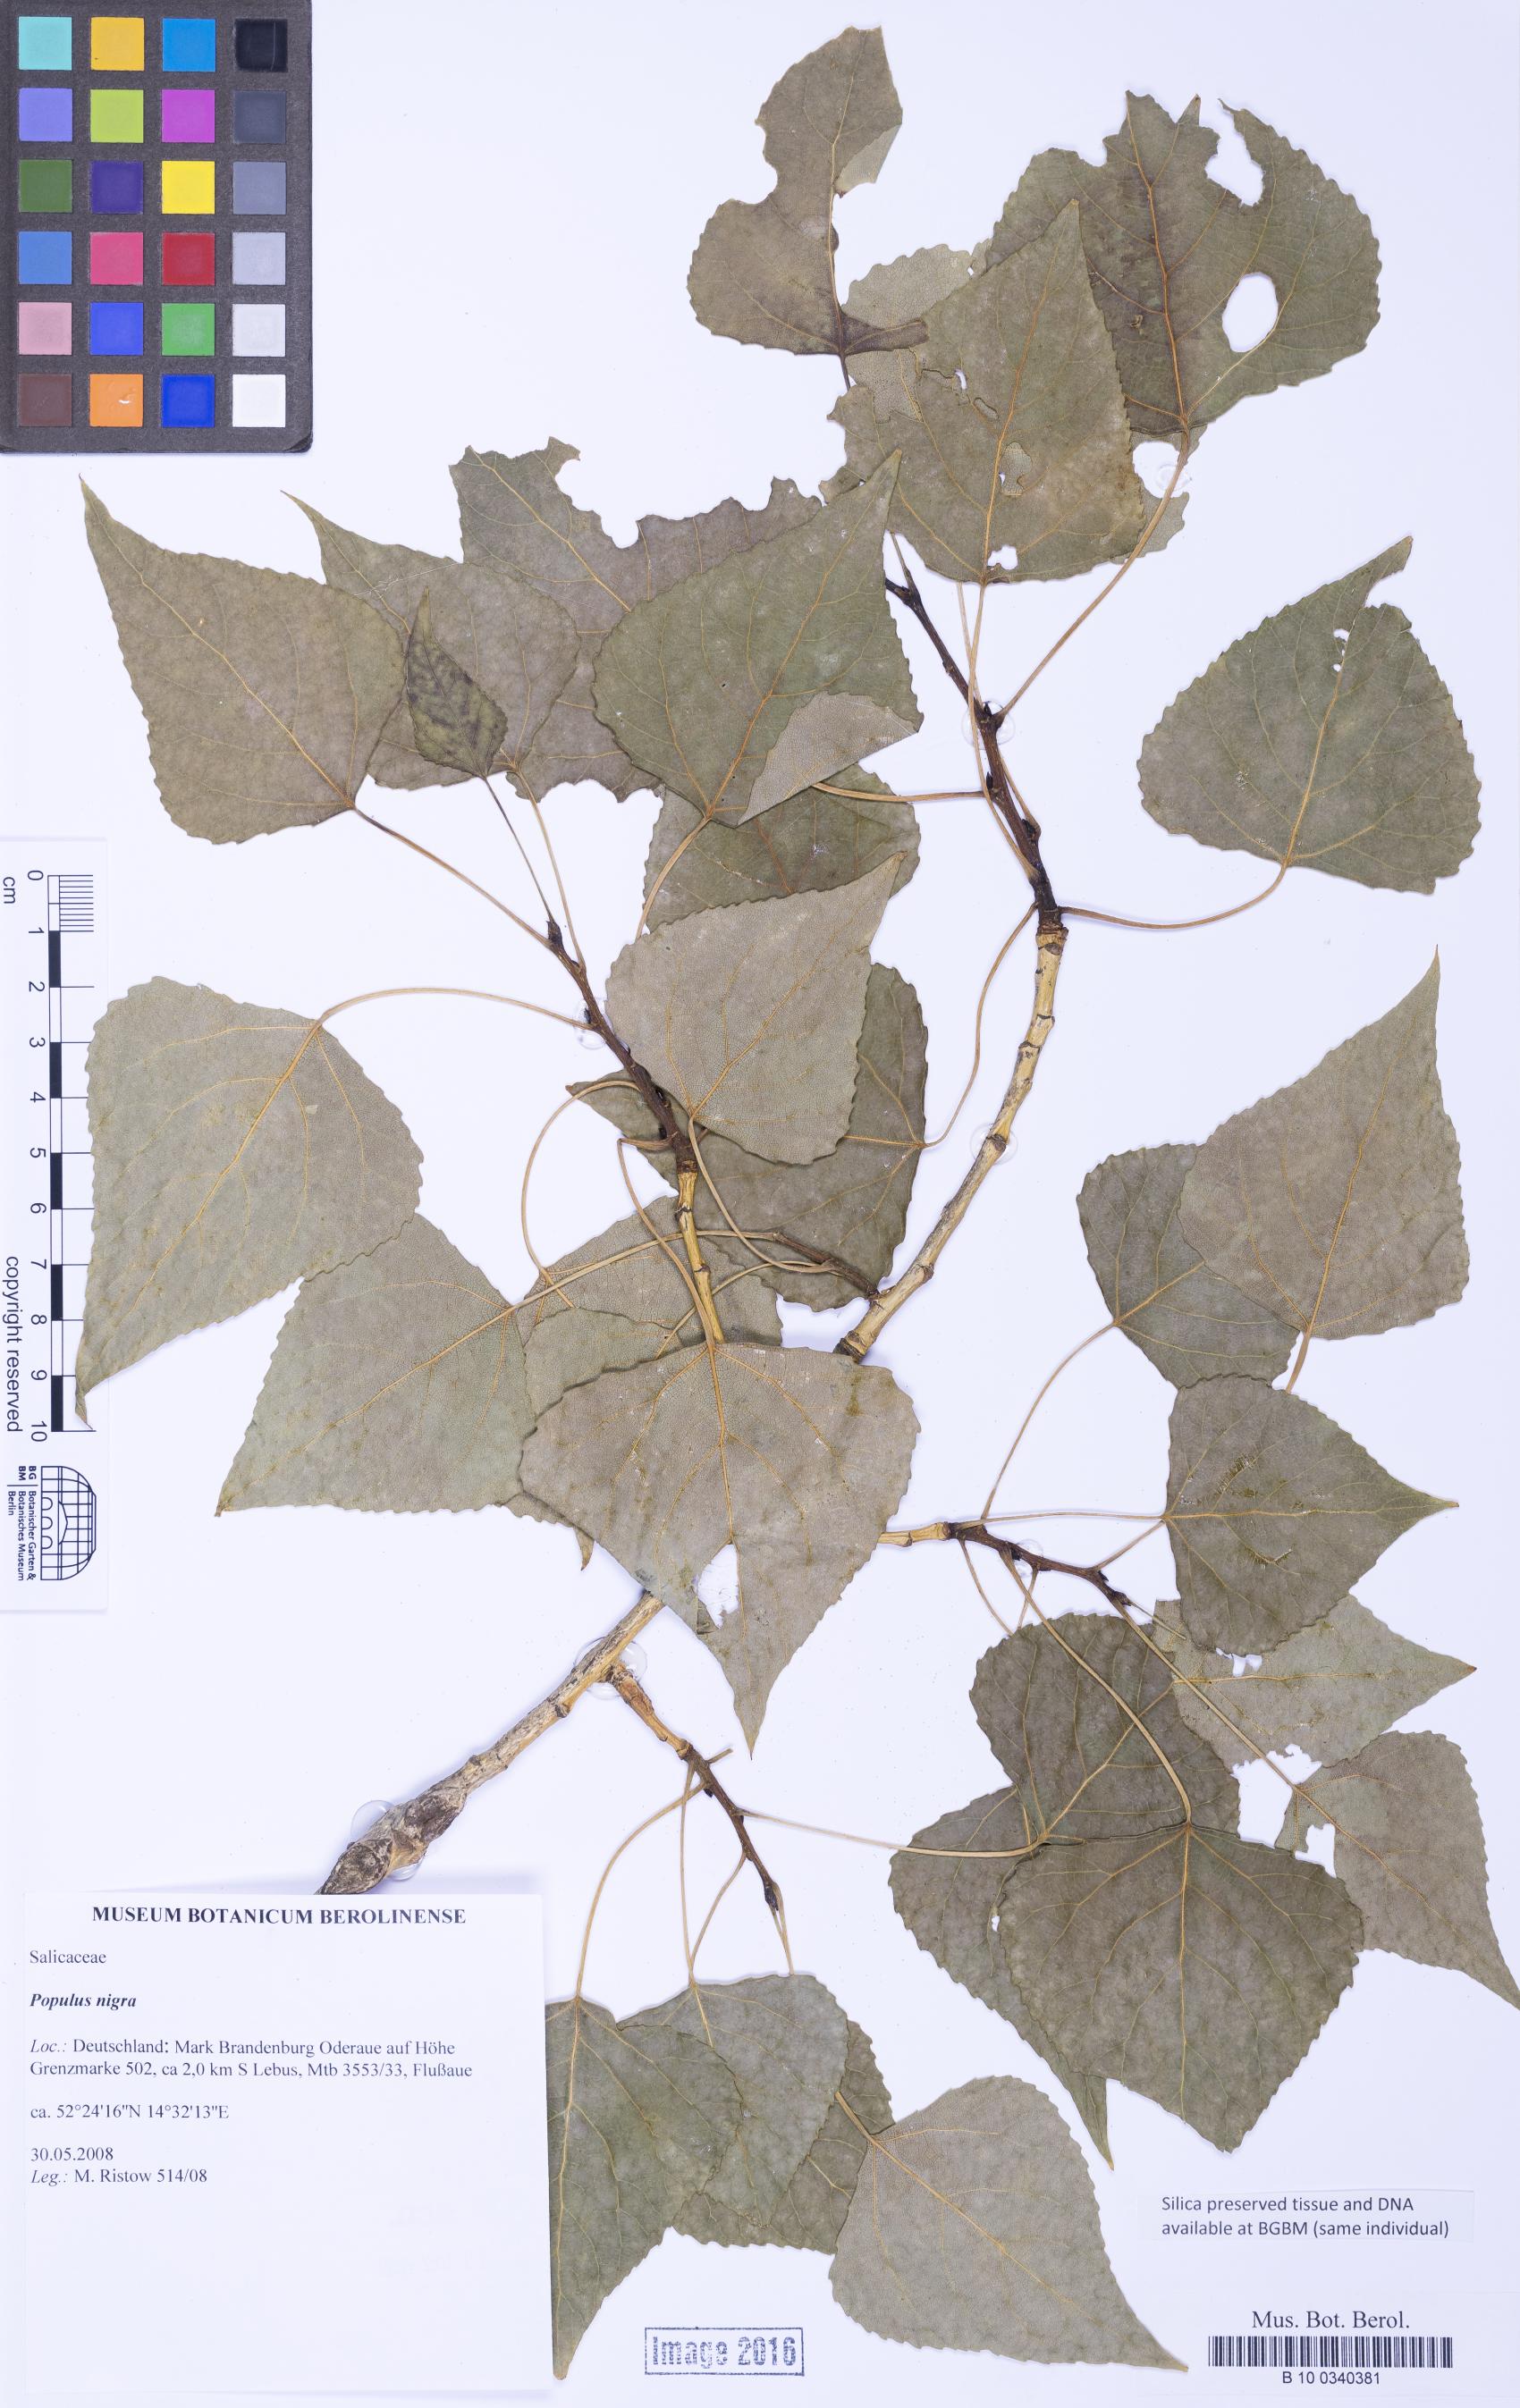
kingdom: Plantae
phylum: Tracheophyta
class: Magnoliopsida
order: Malpighiales
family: Salicaceae
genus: Populus
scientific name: Populus nigra
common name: Black poplar
